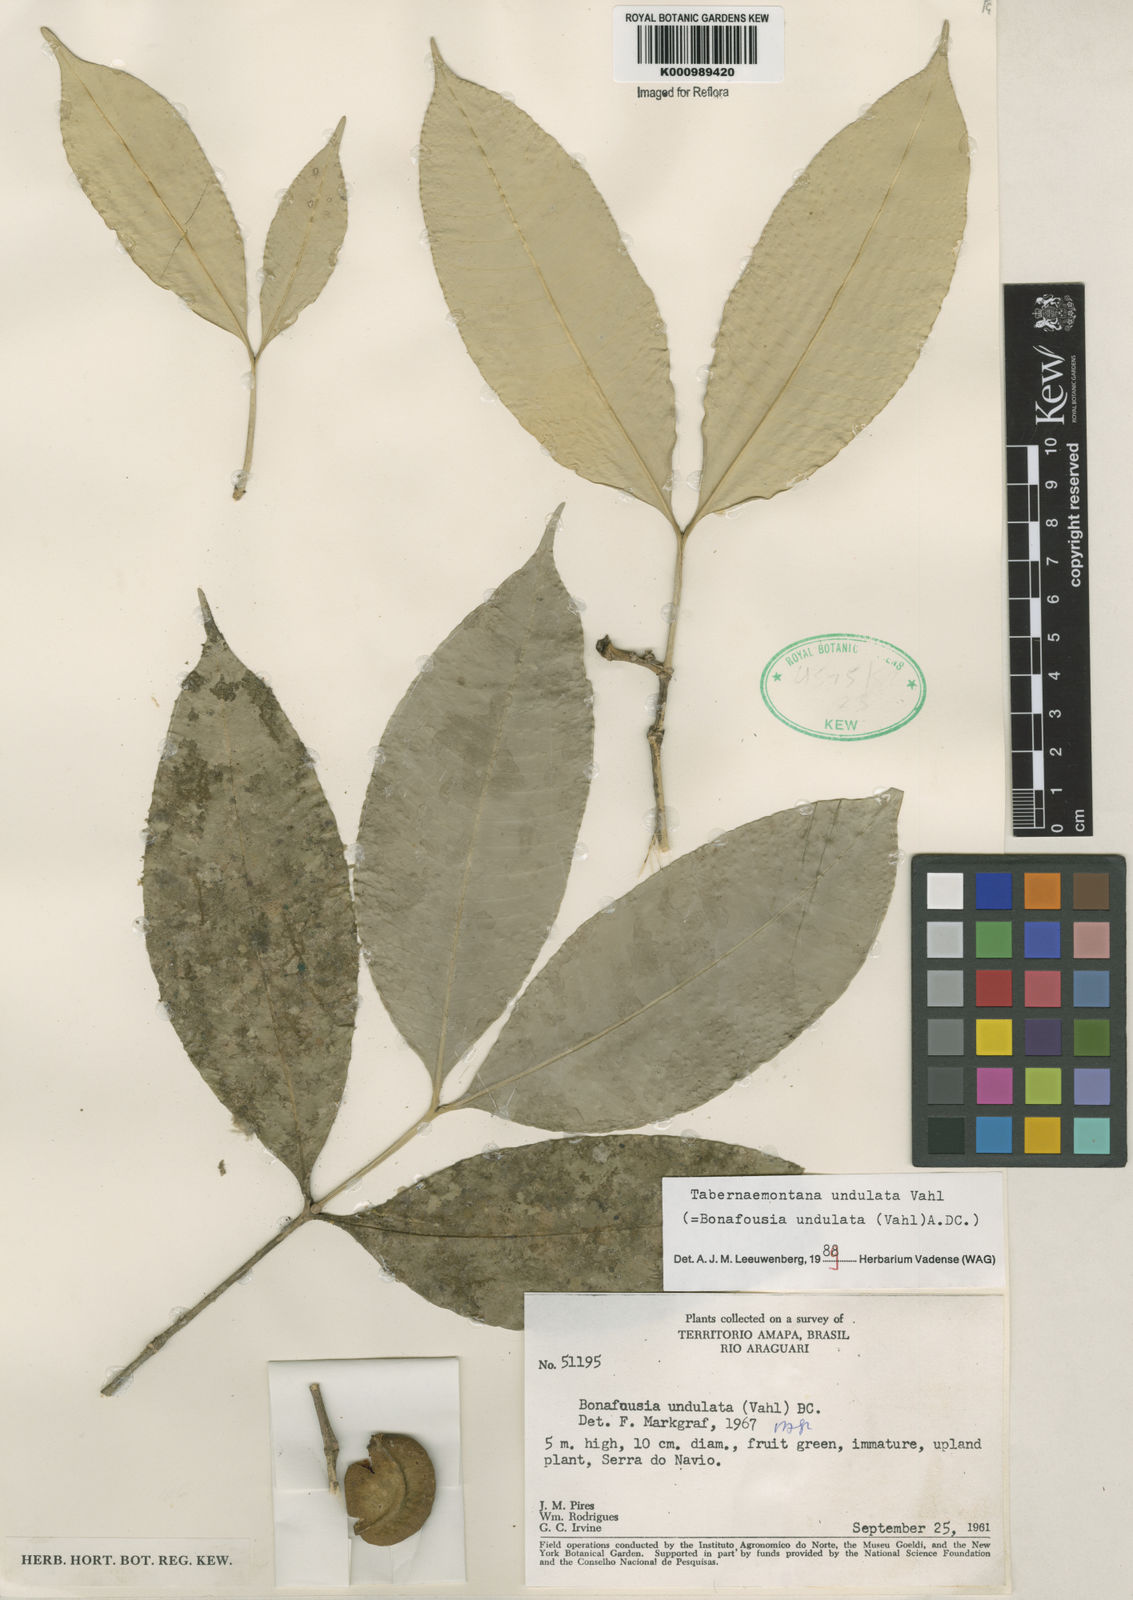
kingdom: Plantae
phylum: Tracheophyta
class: Magnoliopsida
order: Gentianales
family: Apocynaceae
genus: Tabernaemontana
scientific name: Tabernaemontana undulata
